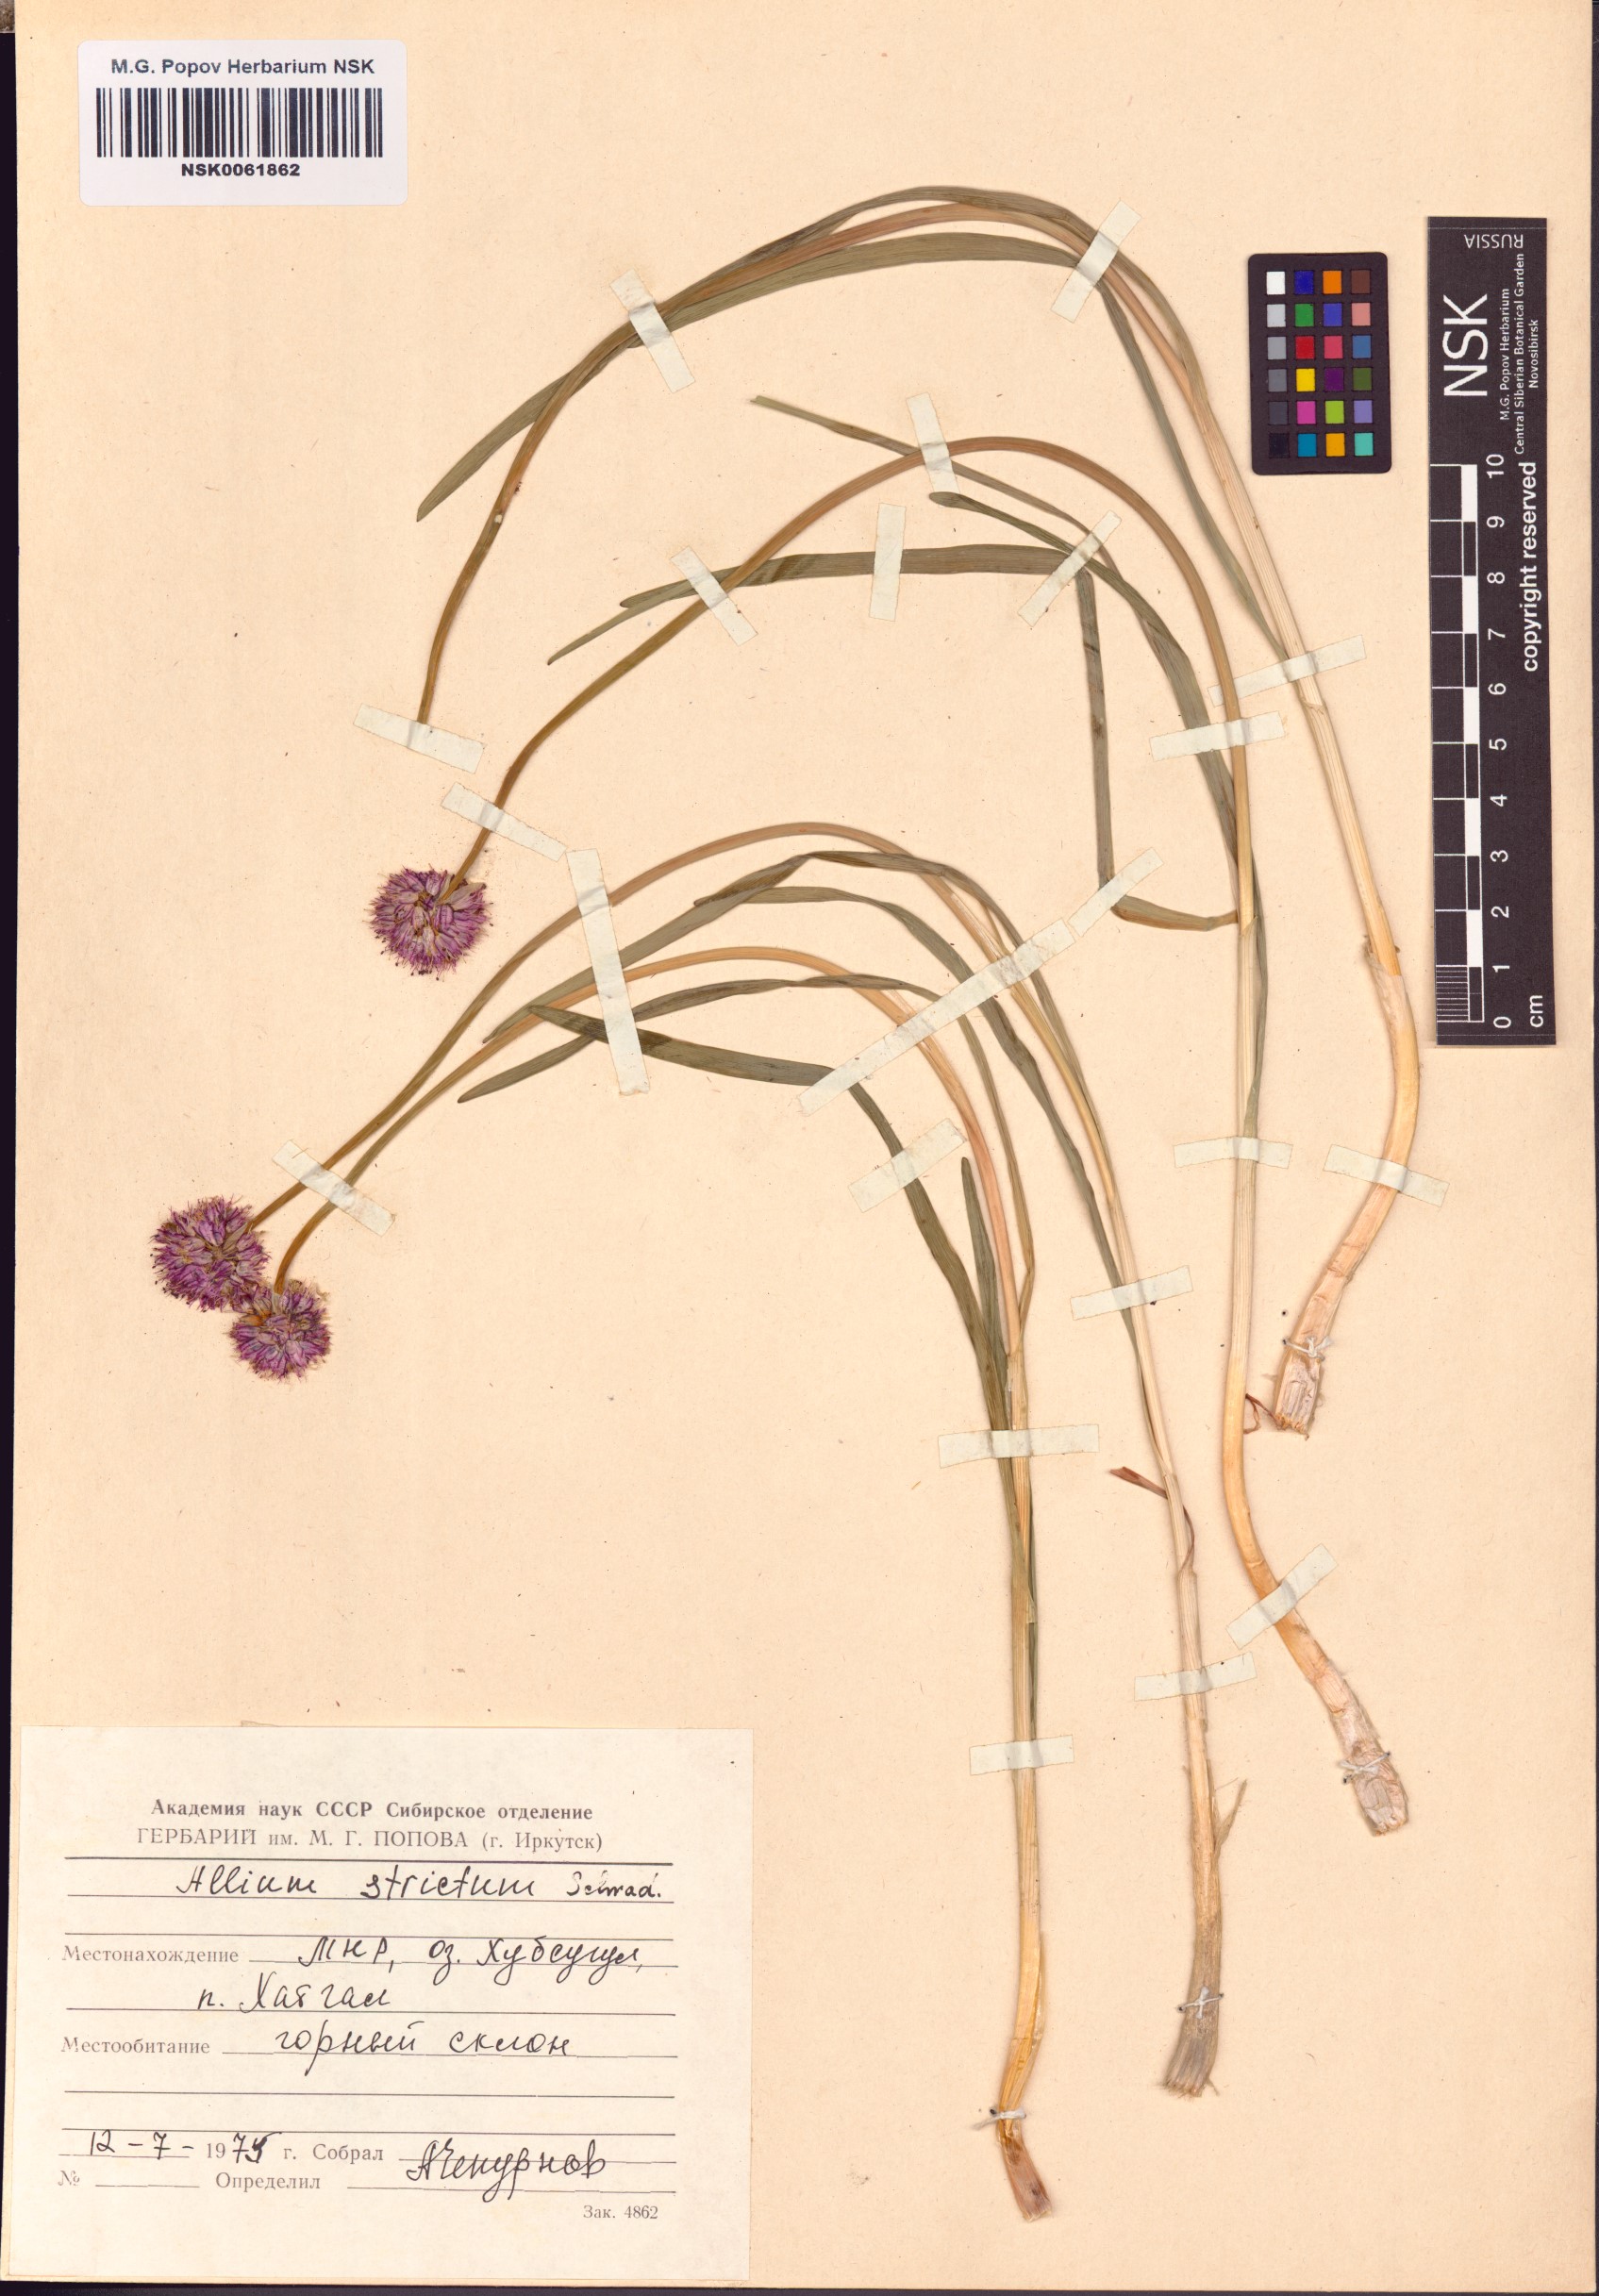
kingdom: Plantae
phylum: Tracheophyta
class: Liliopsida
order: Asparagales
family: Amaryllidaceae
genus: Allium
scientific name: Allium strictum
